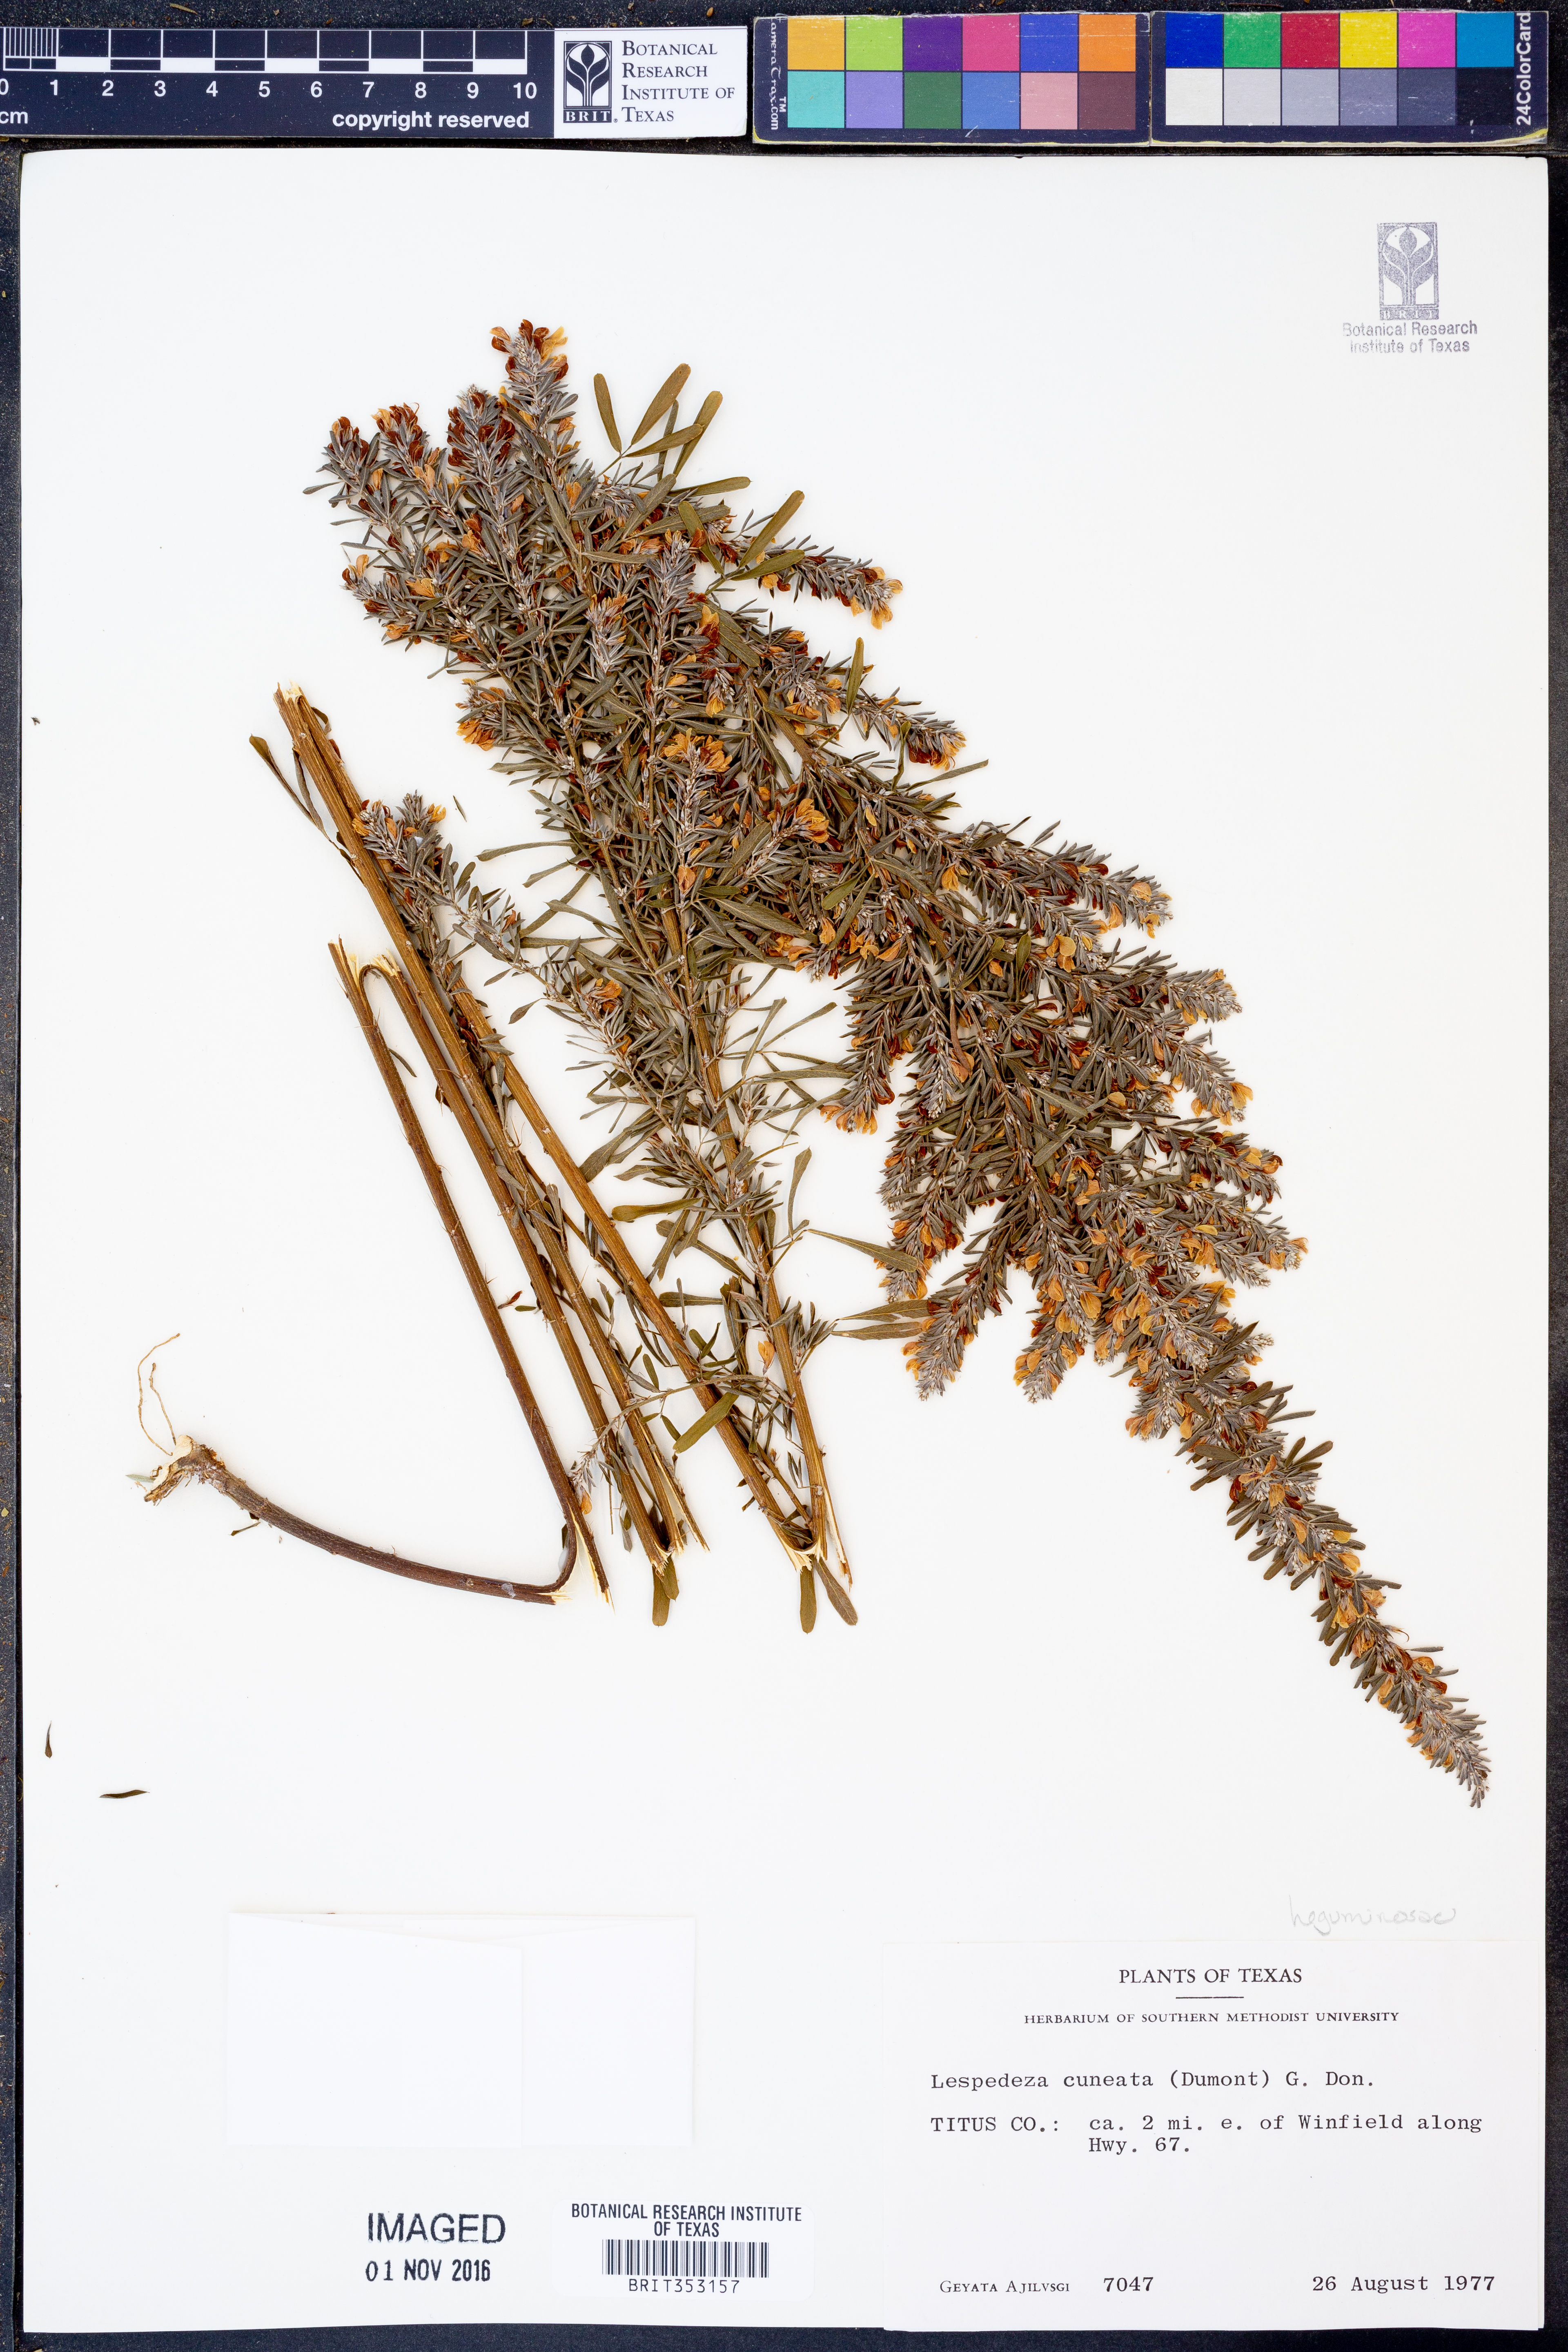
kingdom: Plantae
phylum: Tracheophyta
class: Magnoliopsida
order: Fabales
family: Fabaceae
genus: Lespedeza
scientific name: Lespedeza cuneata
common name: Chinese bush-clover
